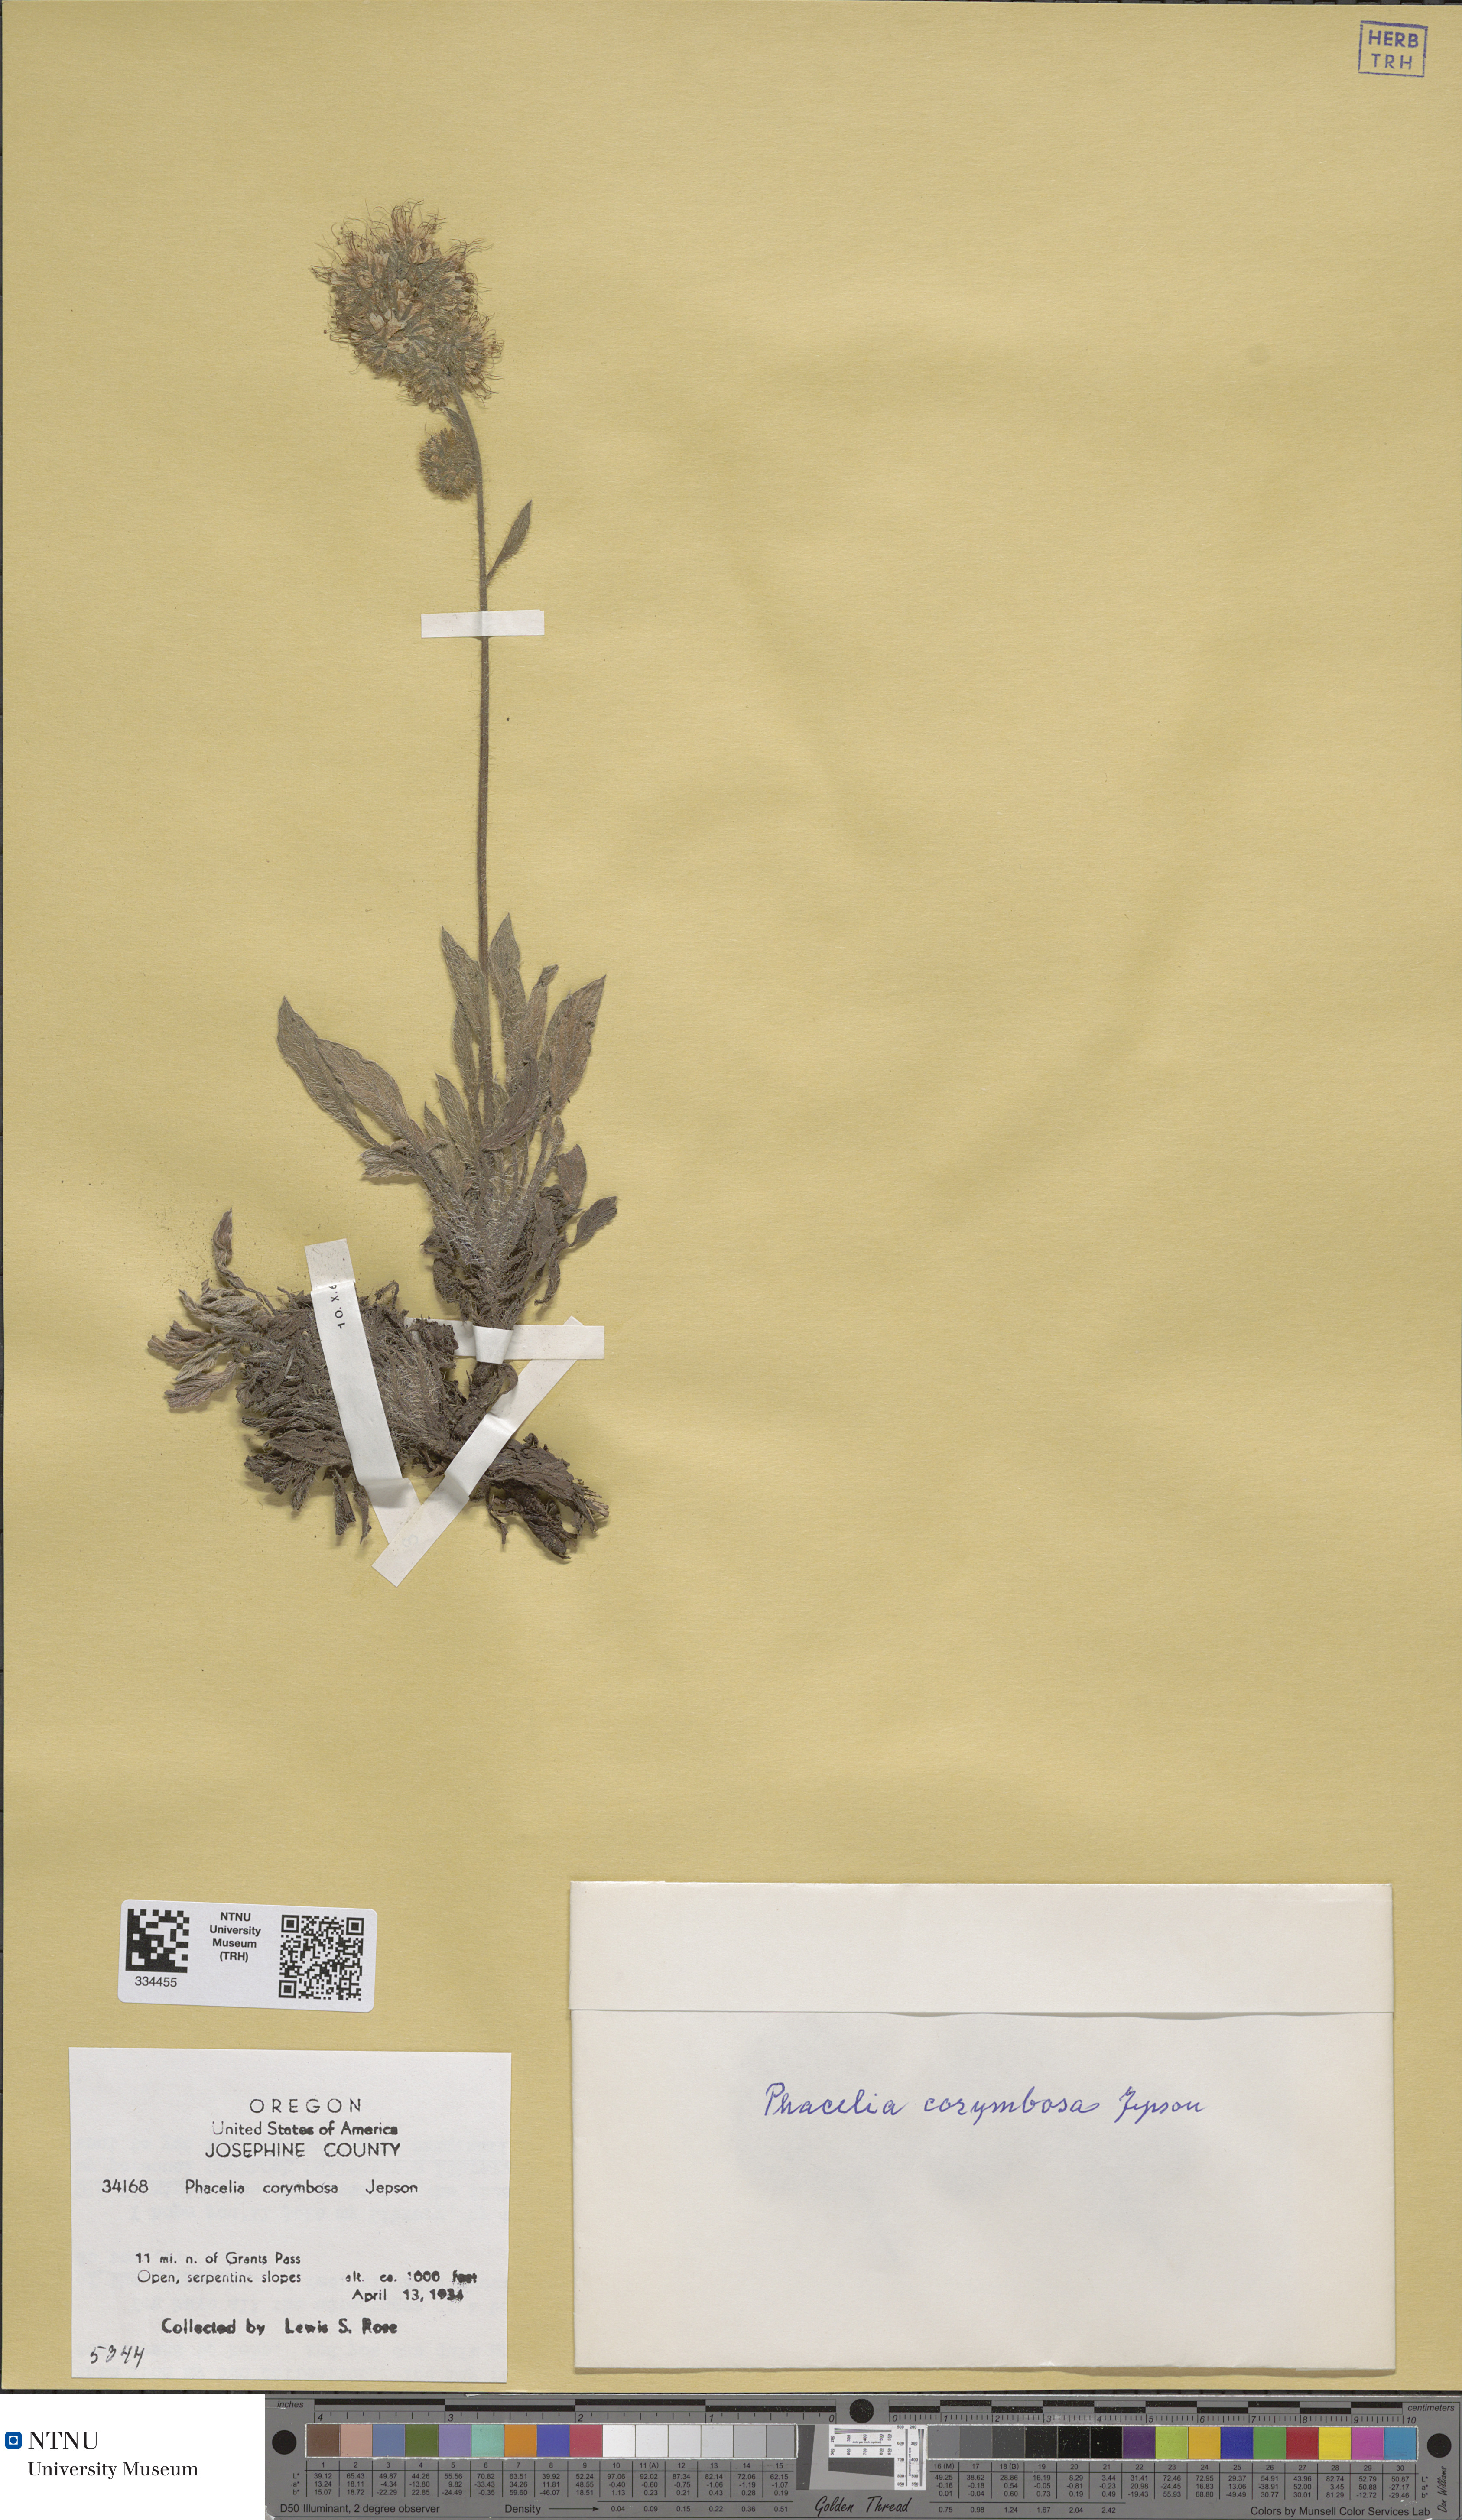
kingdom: Plantae
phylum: Tracheophyta
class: Magnoliopsida
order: Boraginales
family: Hydrophyllaceae
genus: Phacelia
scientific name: Phacelia corymbosa
